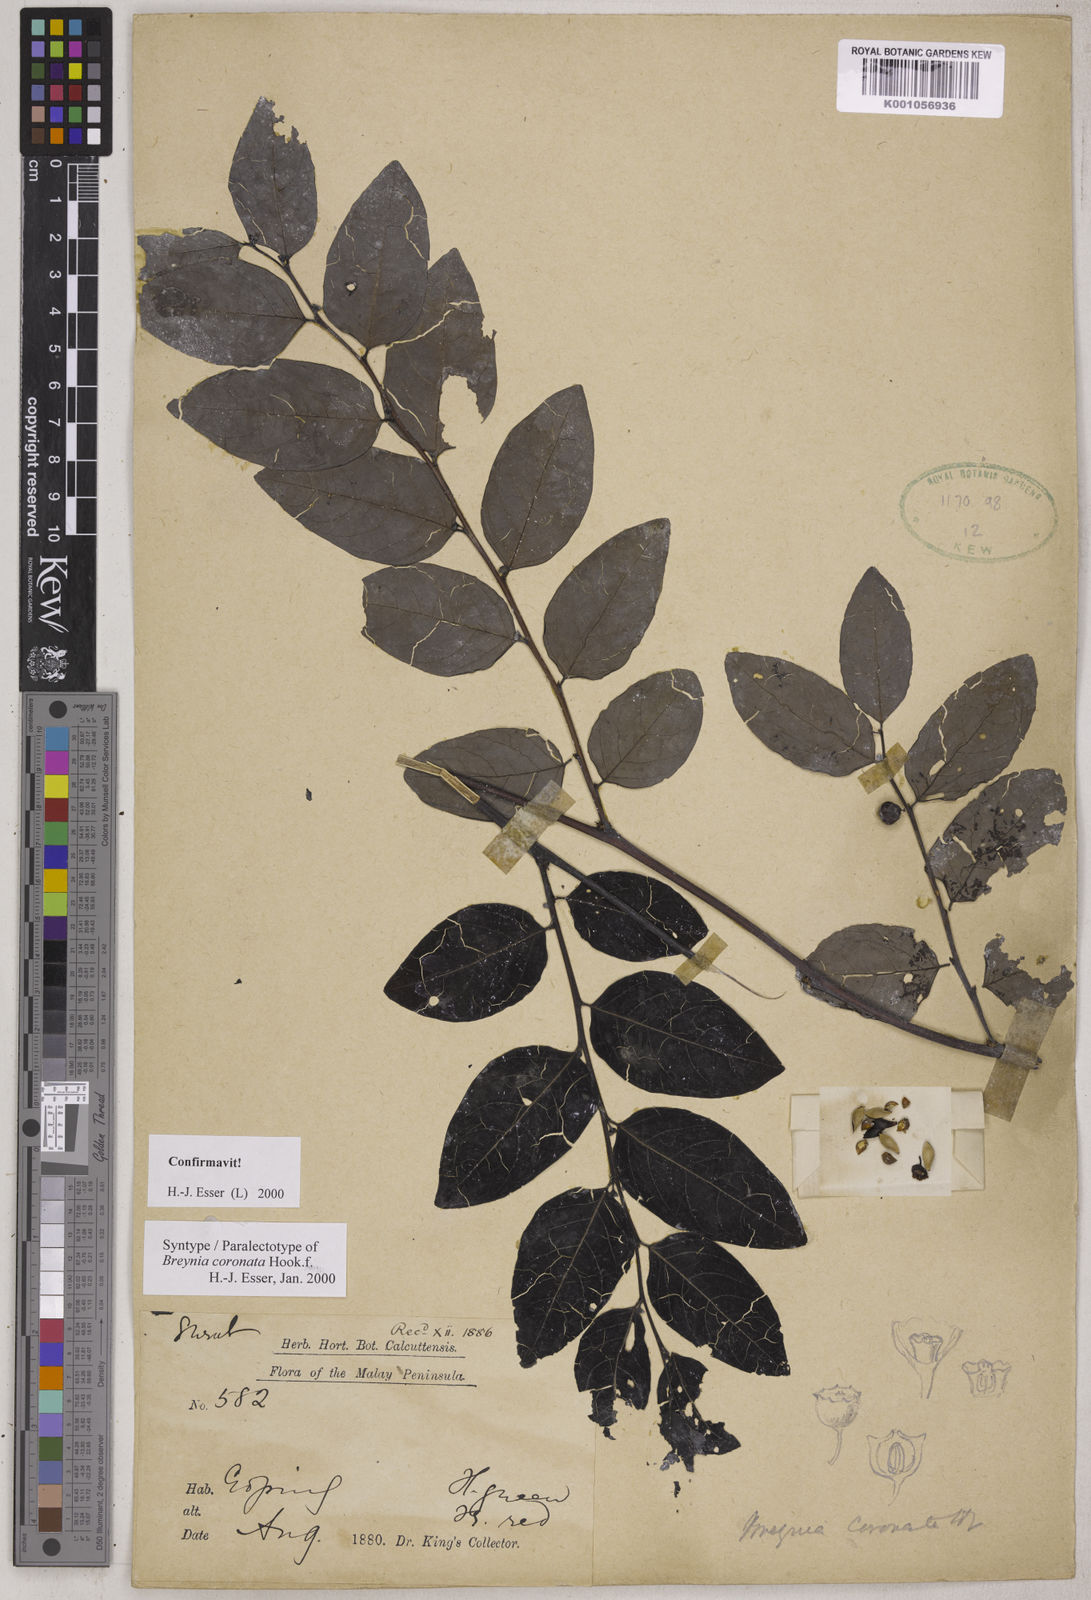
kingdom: Plantae
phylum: Tracheophyta
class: Magnoliopsida
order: Malpighiales
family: Phyllanthaceae
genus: Breynia
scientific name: Breynia coronata
